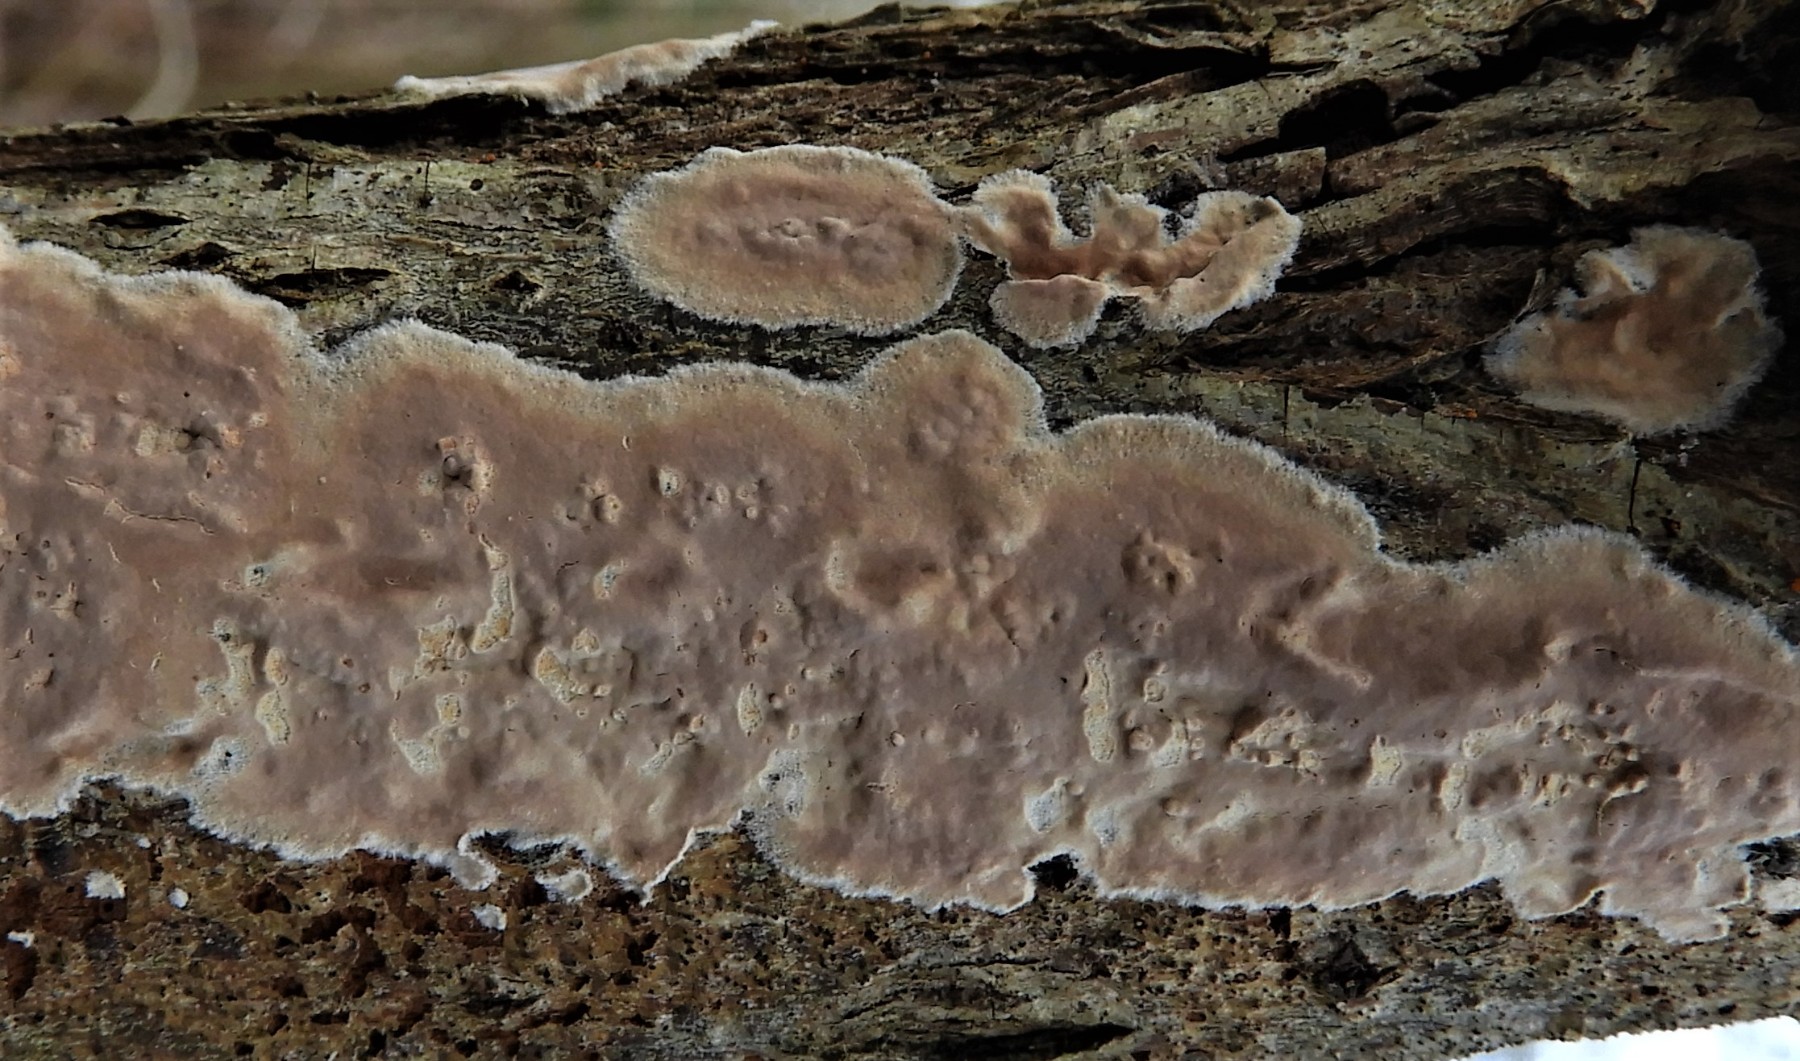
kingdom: Fungi
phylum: Basidiomycota
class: Agaricomycetes
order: Agaricales
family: Physalacriaceae
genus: Cylindrobasidium
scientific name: Cylindrobasidium evolvens
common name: sprækkehinde
